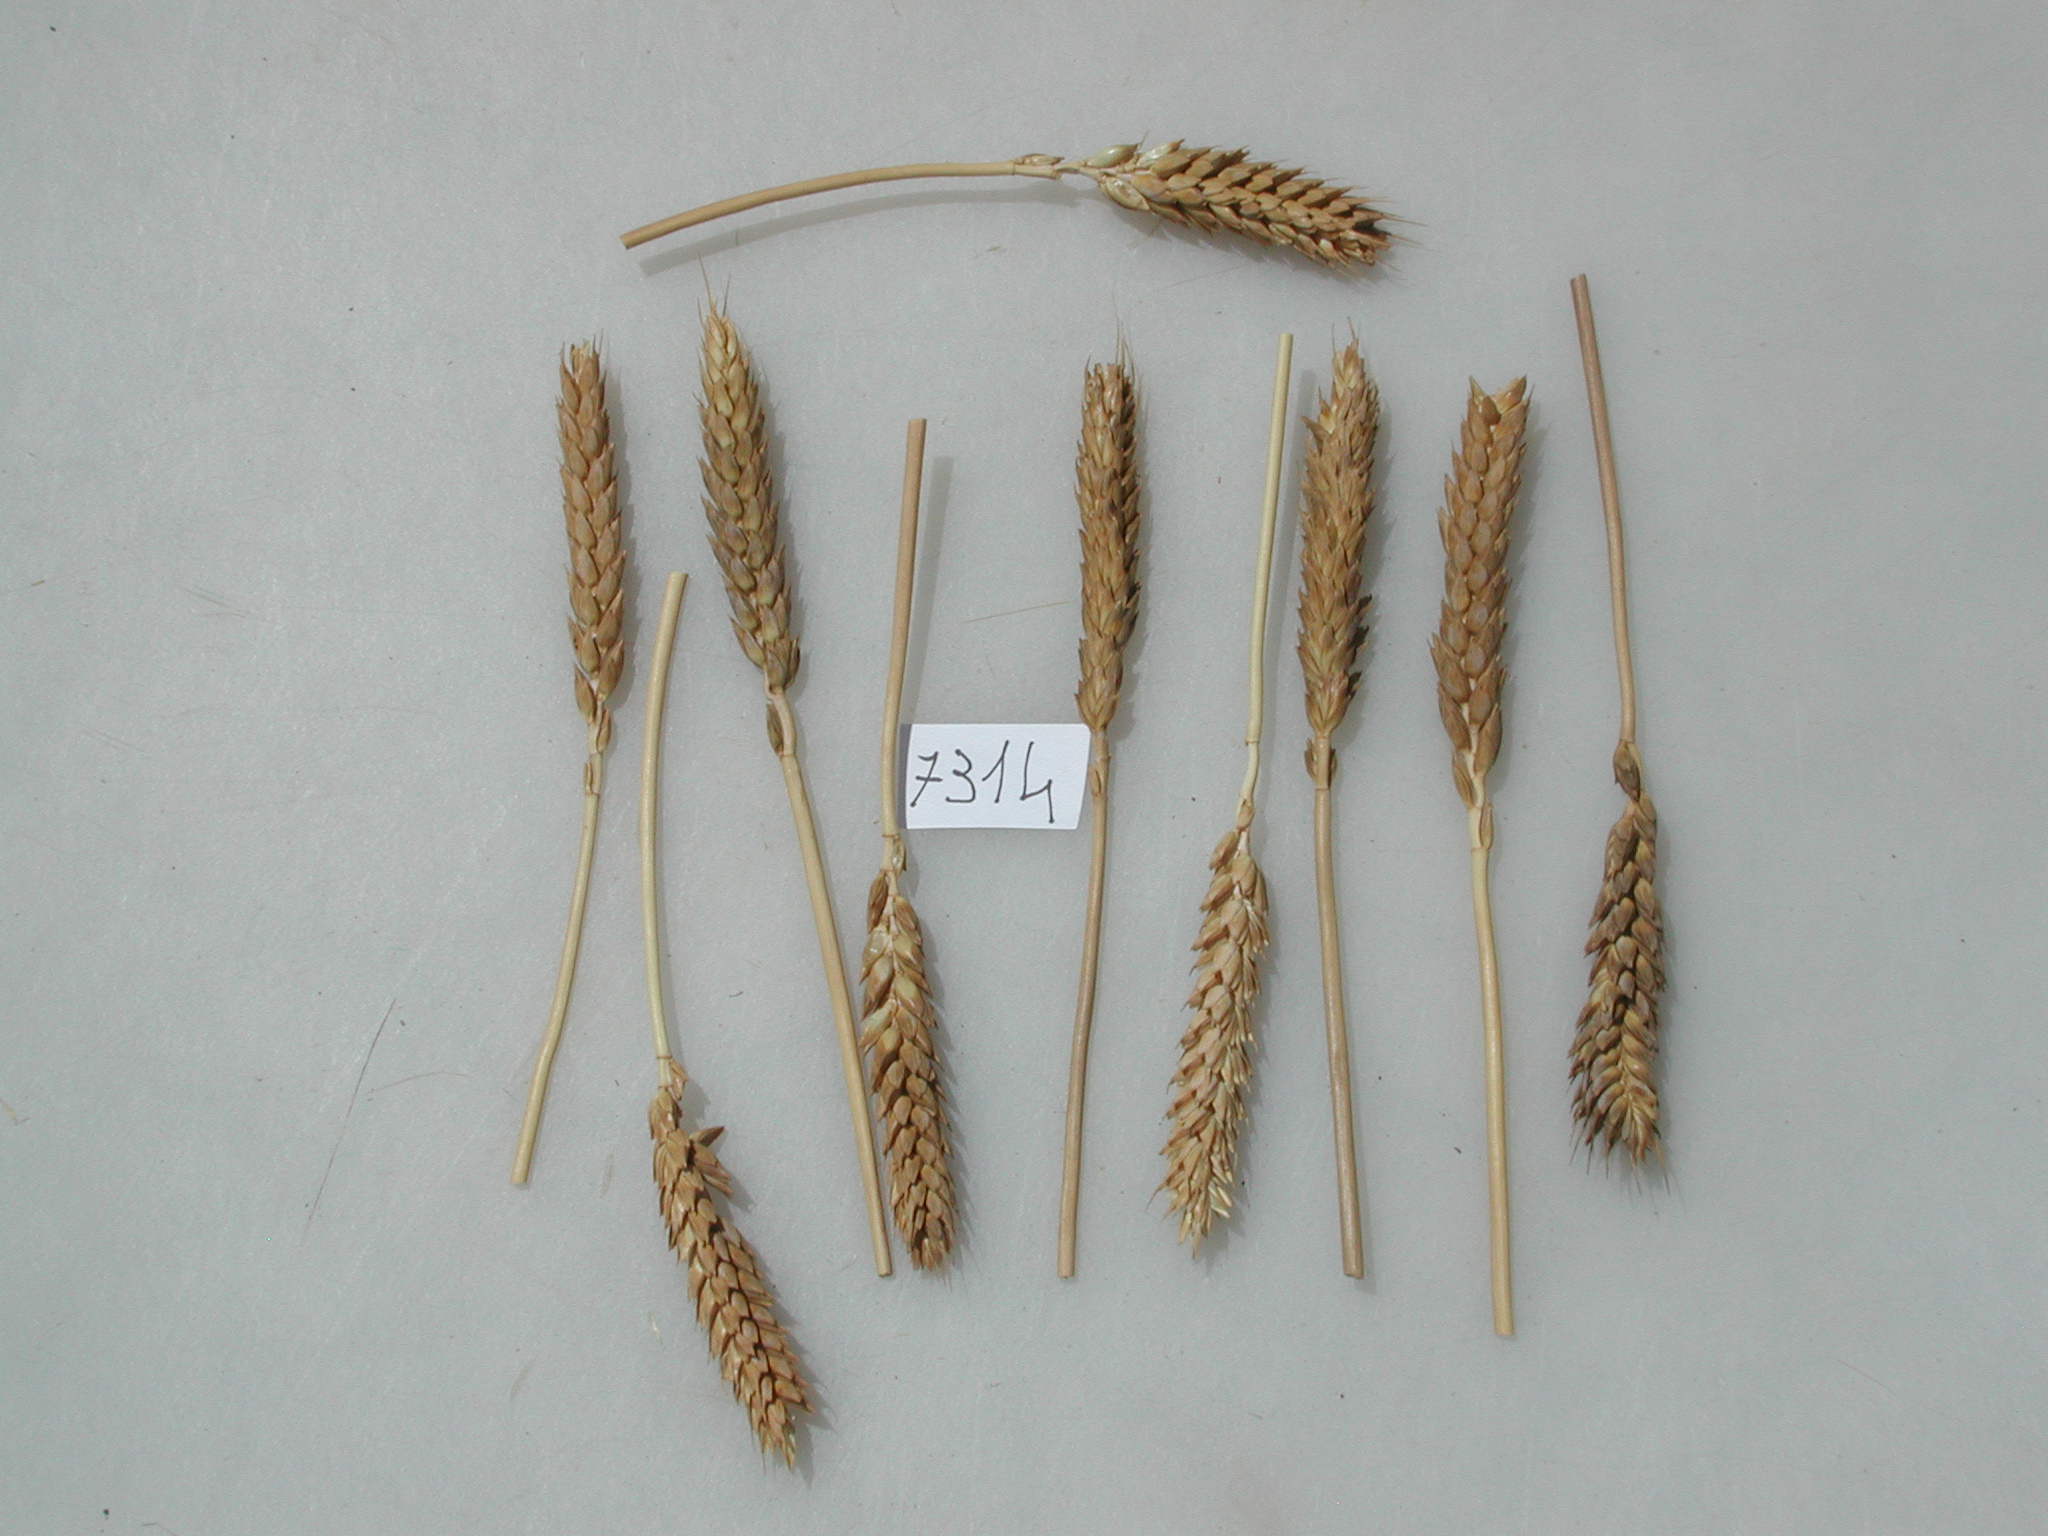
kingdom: Plantae
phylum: Tracheophyta
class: Liliopsida
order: Poales
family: Poaceae
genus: Triticum
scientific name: Triticum aestivum
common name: Wheat
